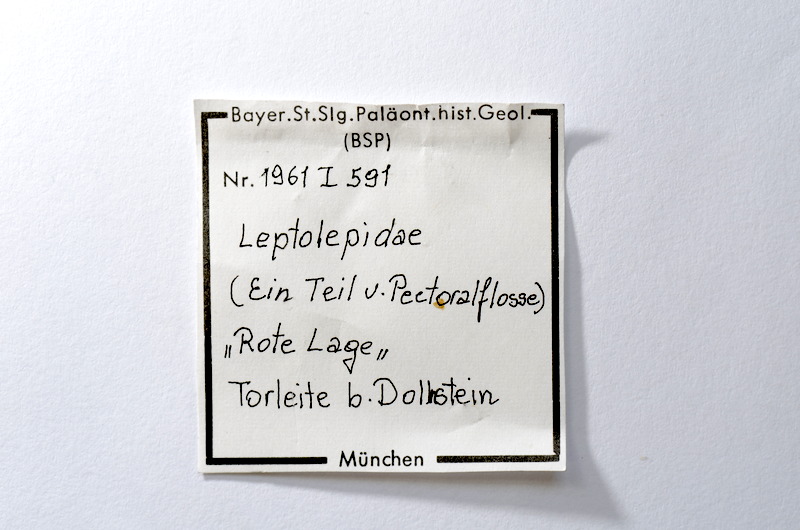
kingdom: Animalia
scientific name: Animalia
